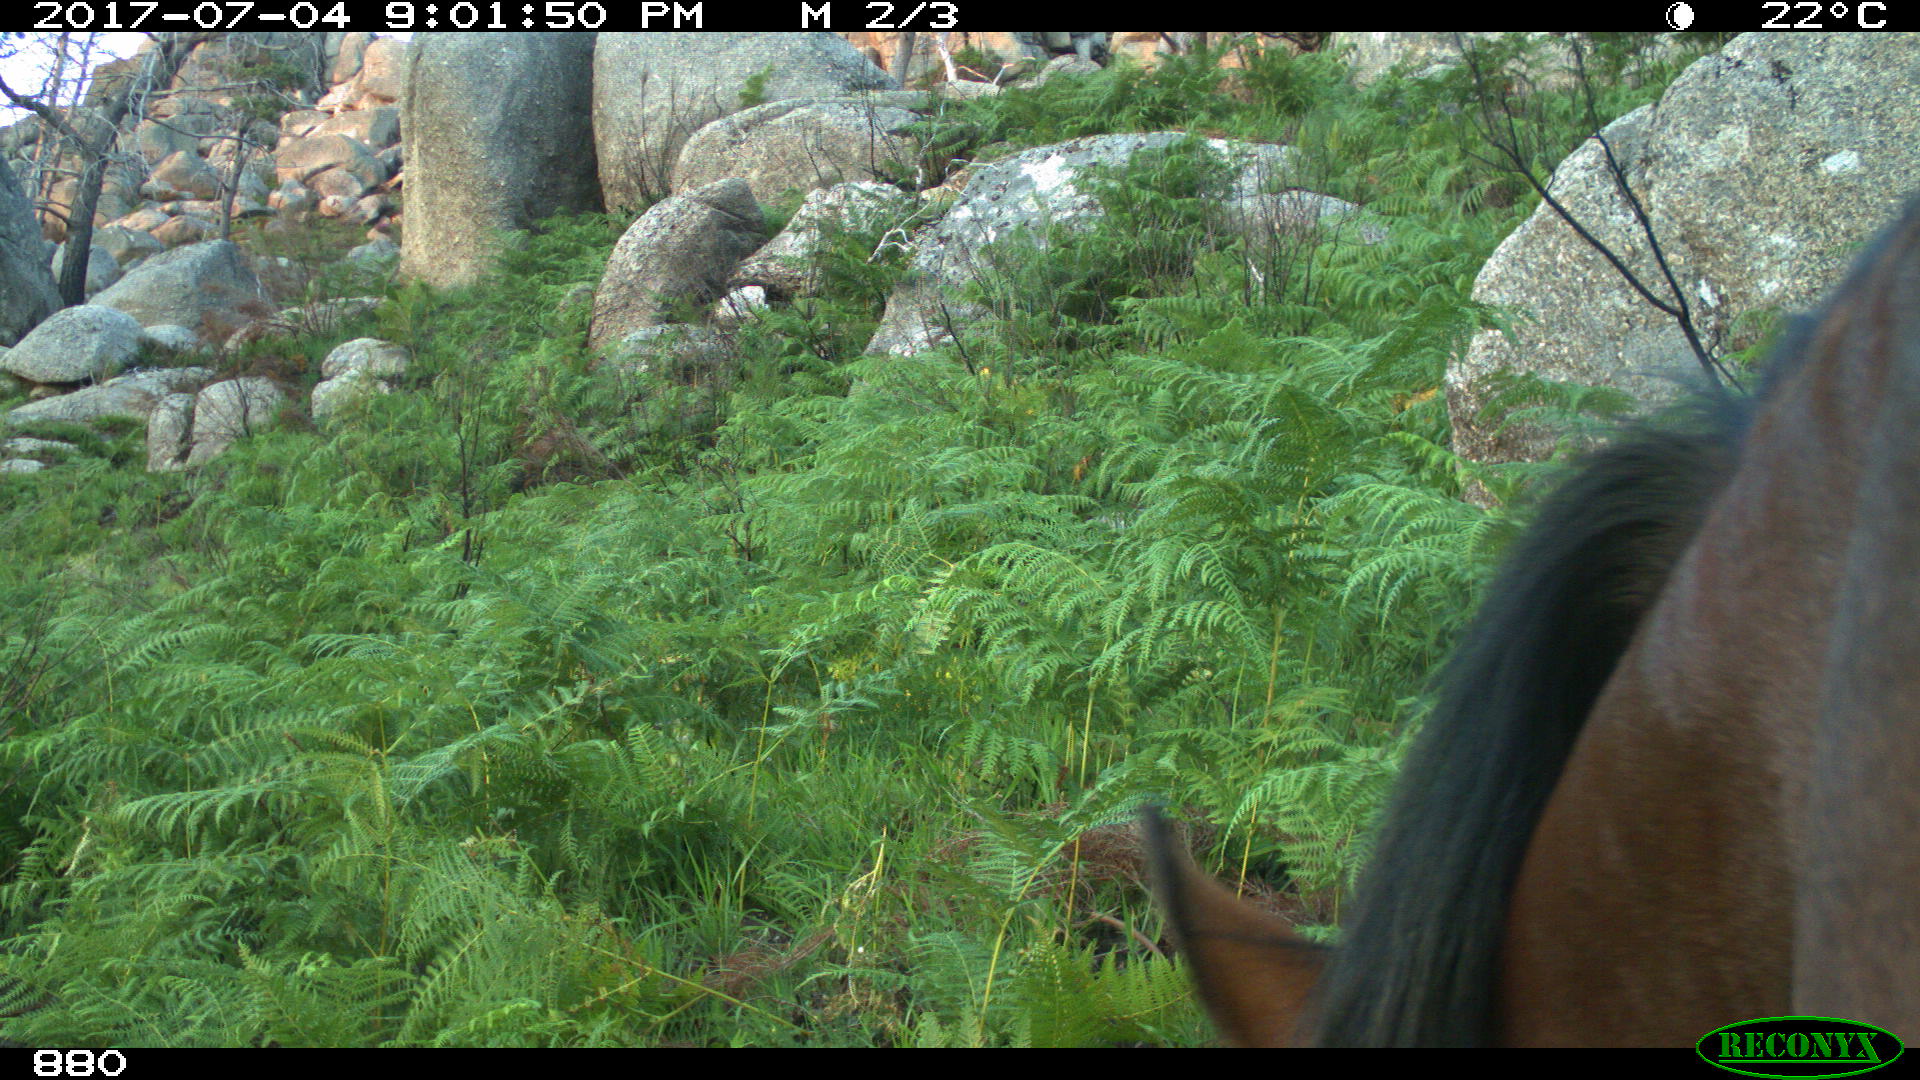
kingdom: Animalia
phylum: Chordata
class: Mammalia
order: Perissodactyla
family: Equidae
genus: Equus
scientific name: Equus caballus
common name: Horse
